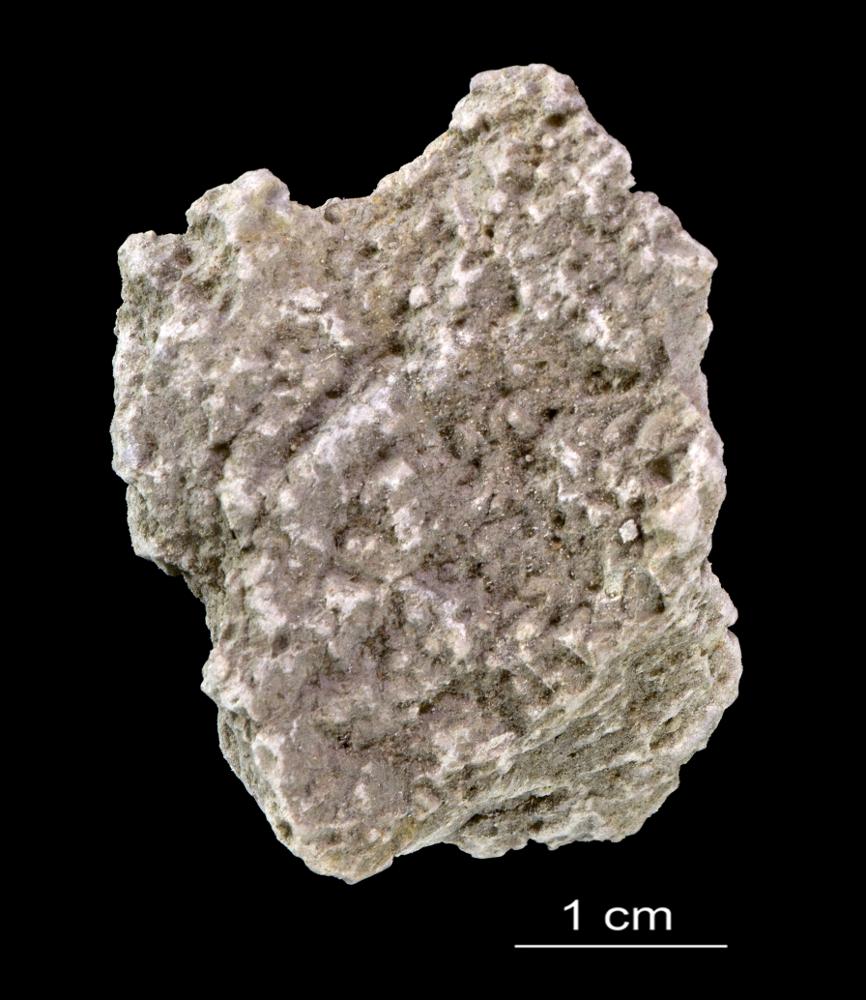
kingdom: Animalia
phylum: Annelida
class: Polychaeta
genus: Volborthella
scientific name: Volborthella tenuis
